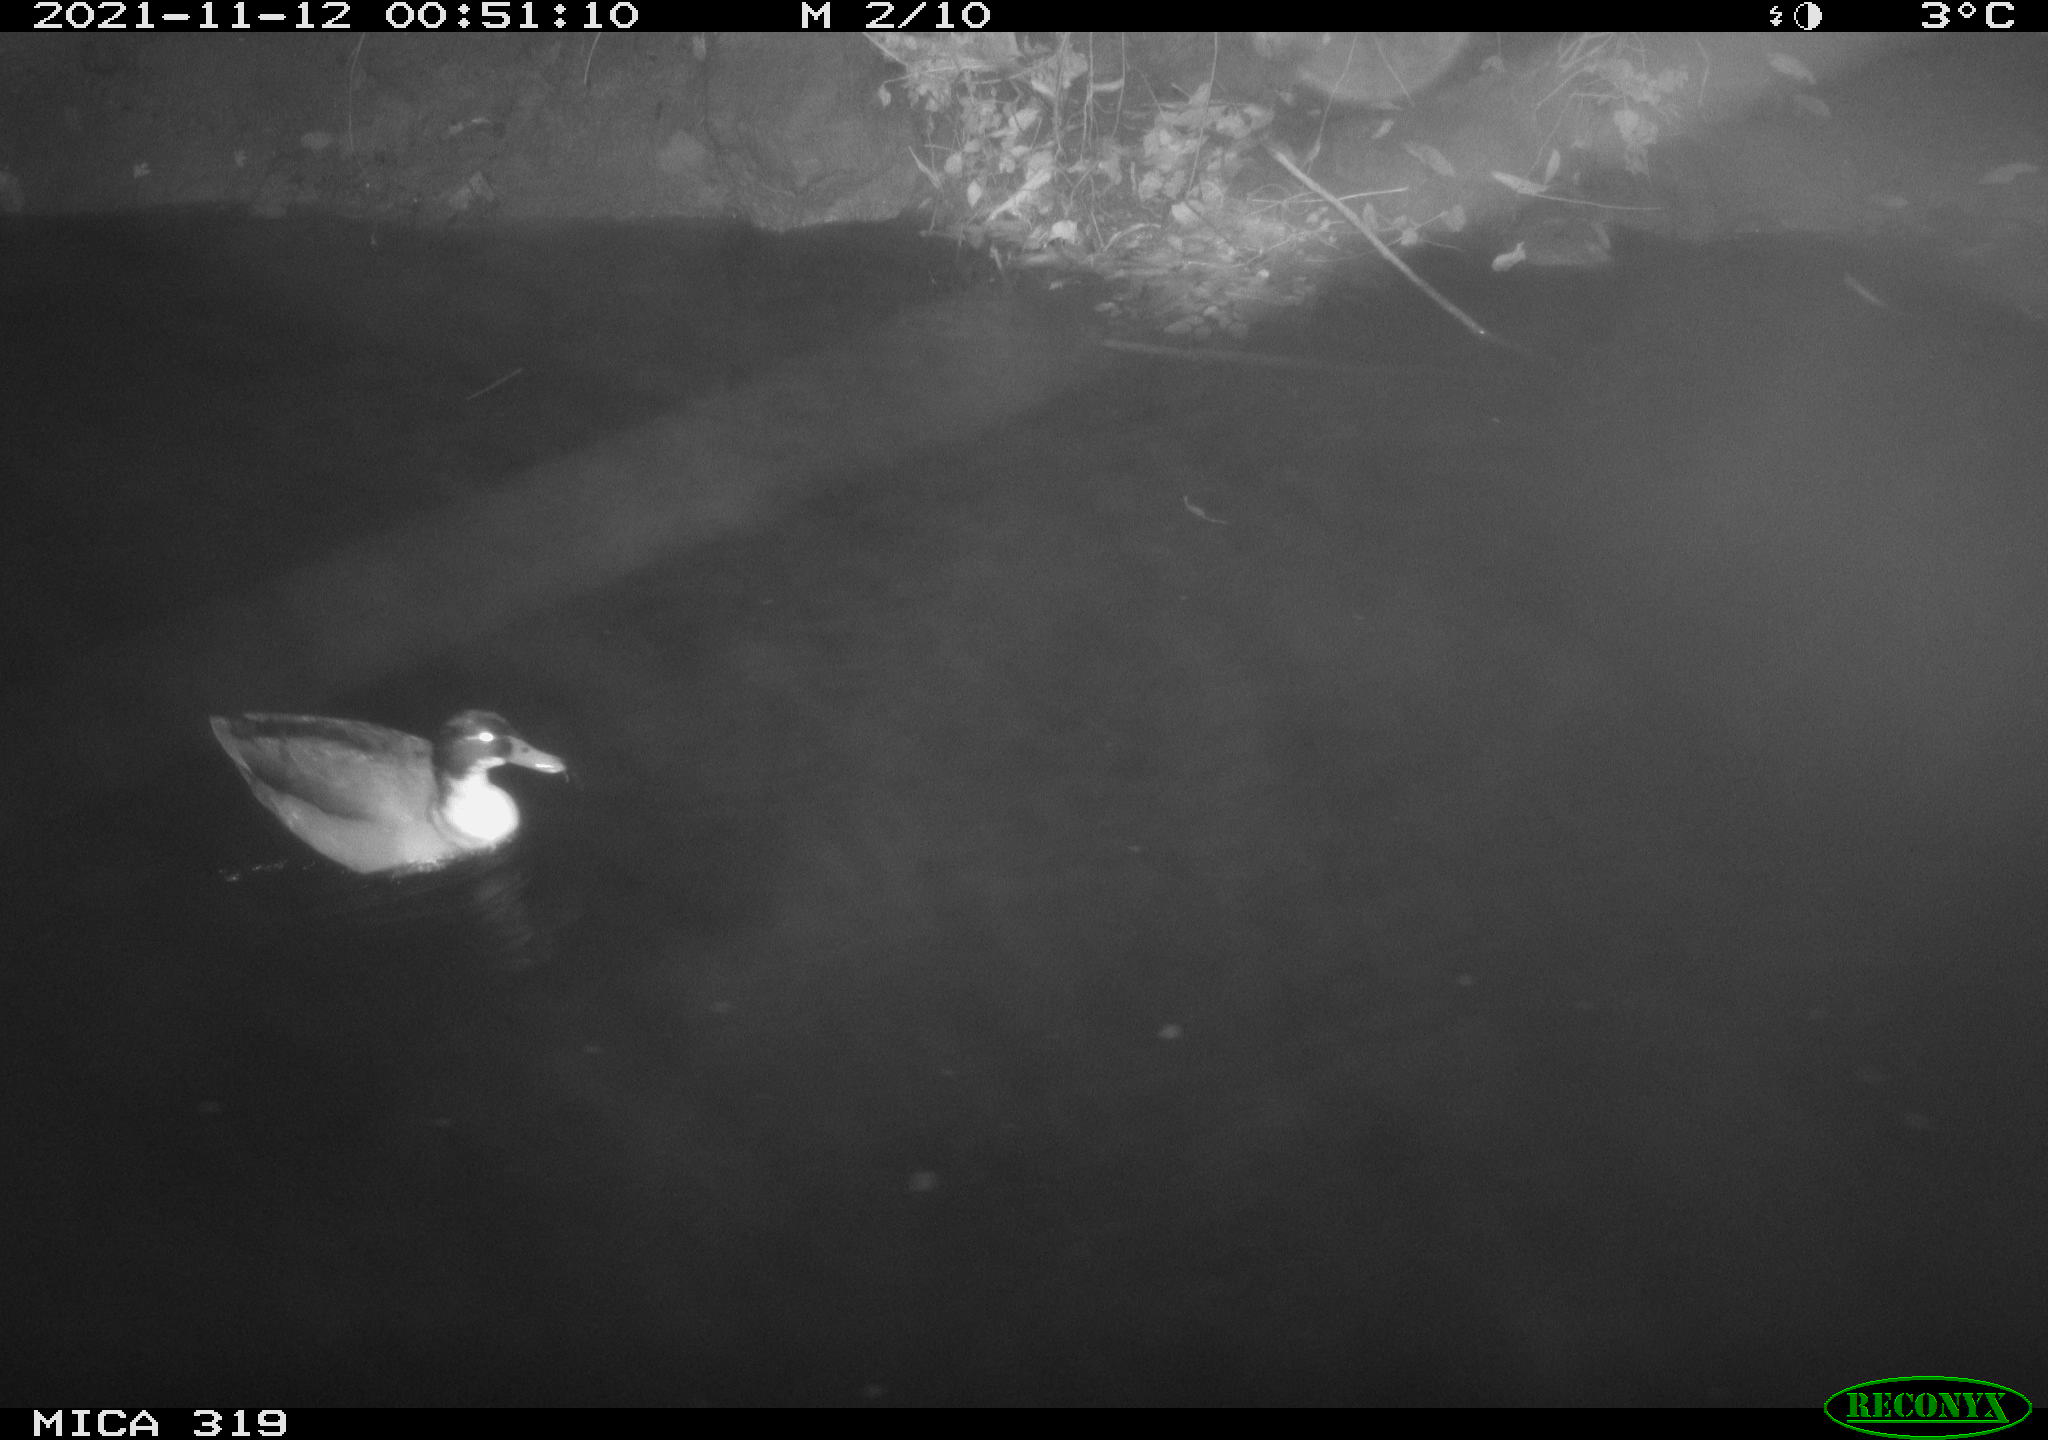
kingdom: Animalia
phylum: Chordata
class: Aves
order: Anseriformes
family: Anatidae
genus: Anas
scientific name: Anas platyrhynchos
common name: Mallard
